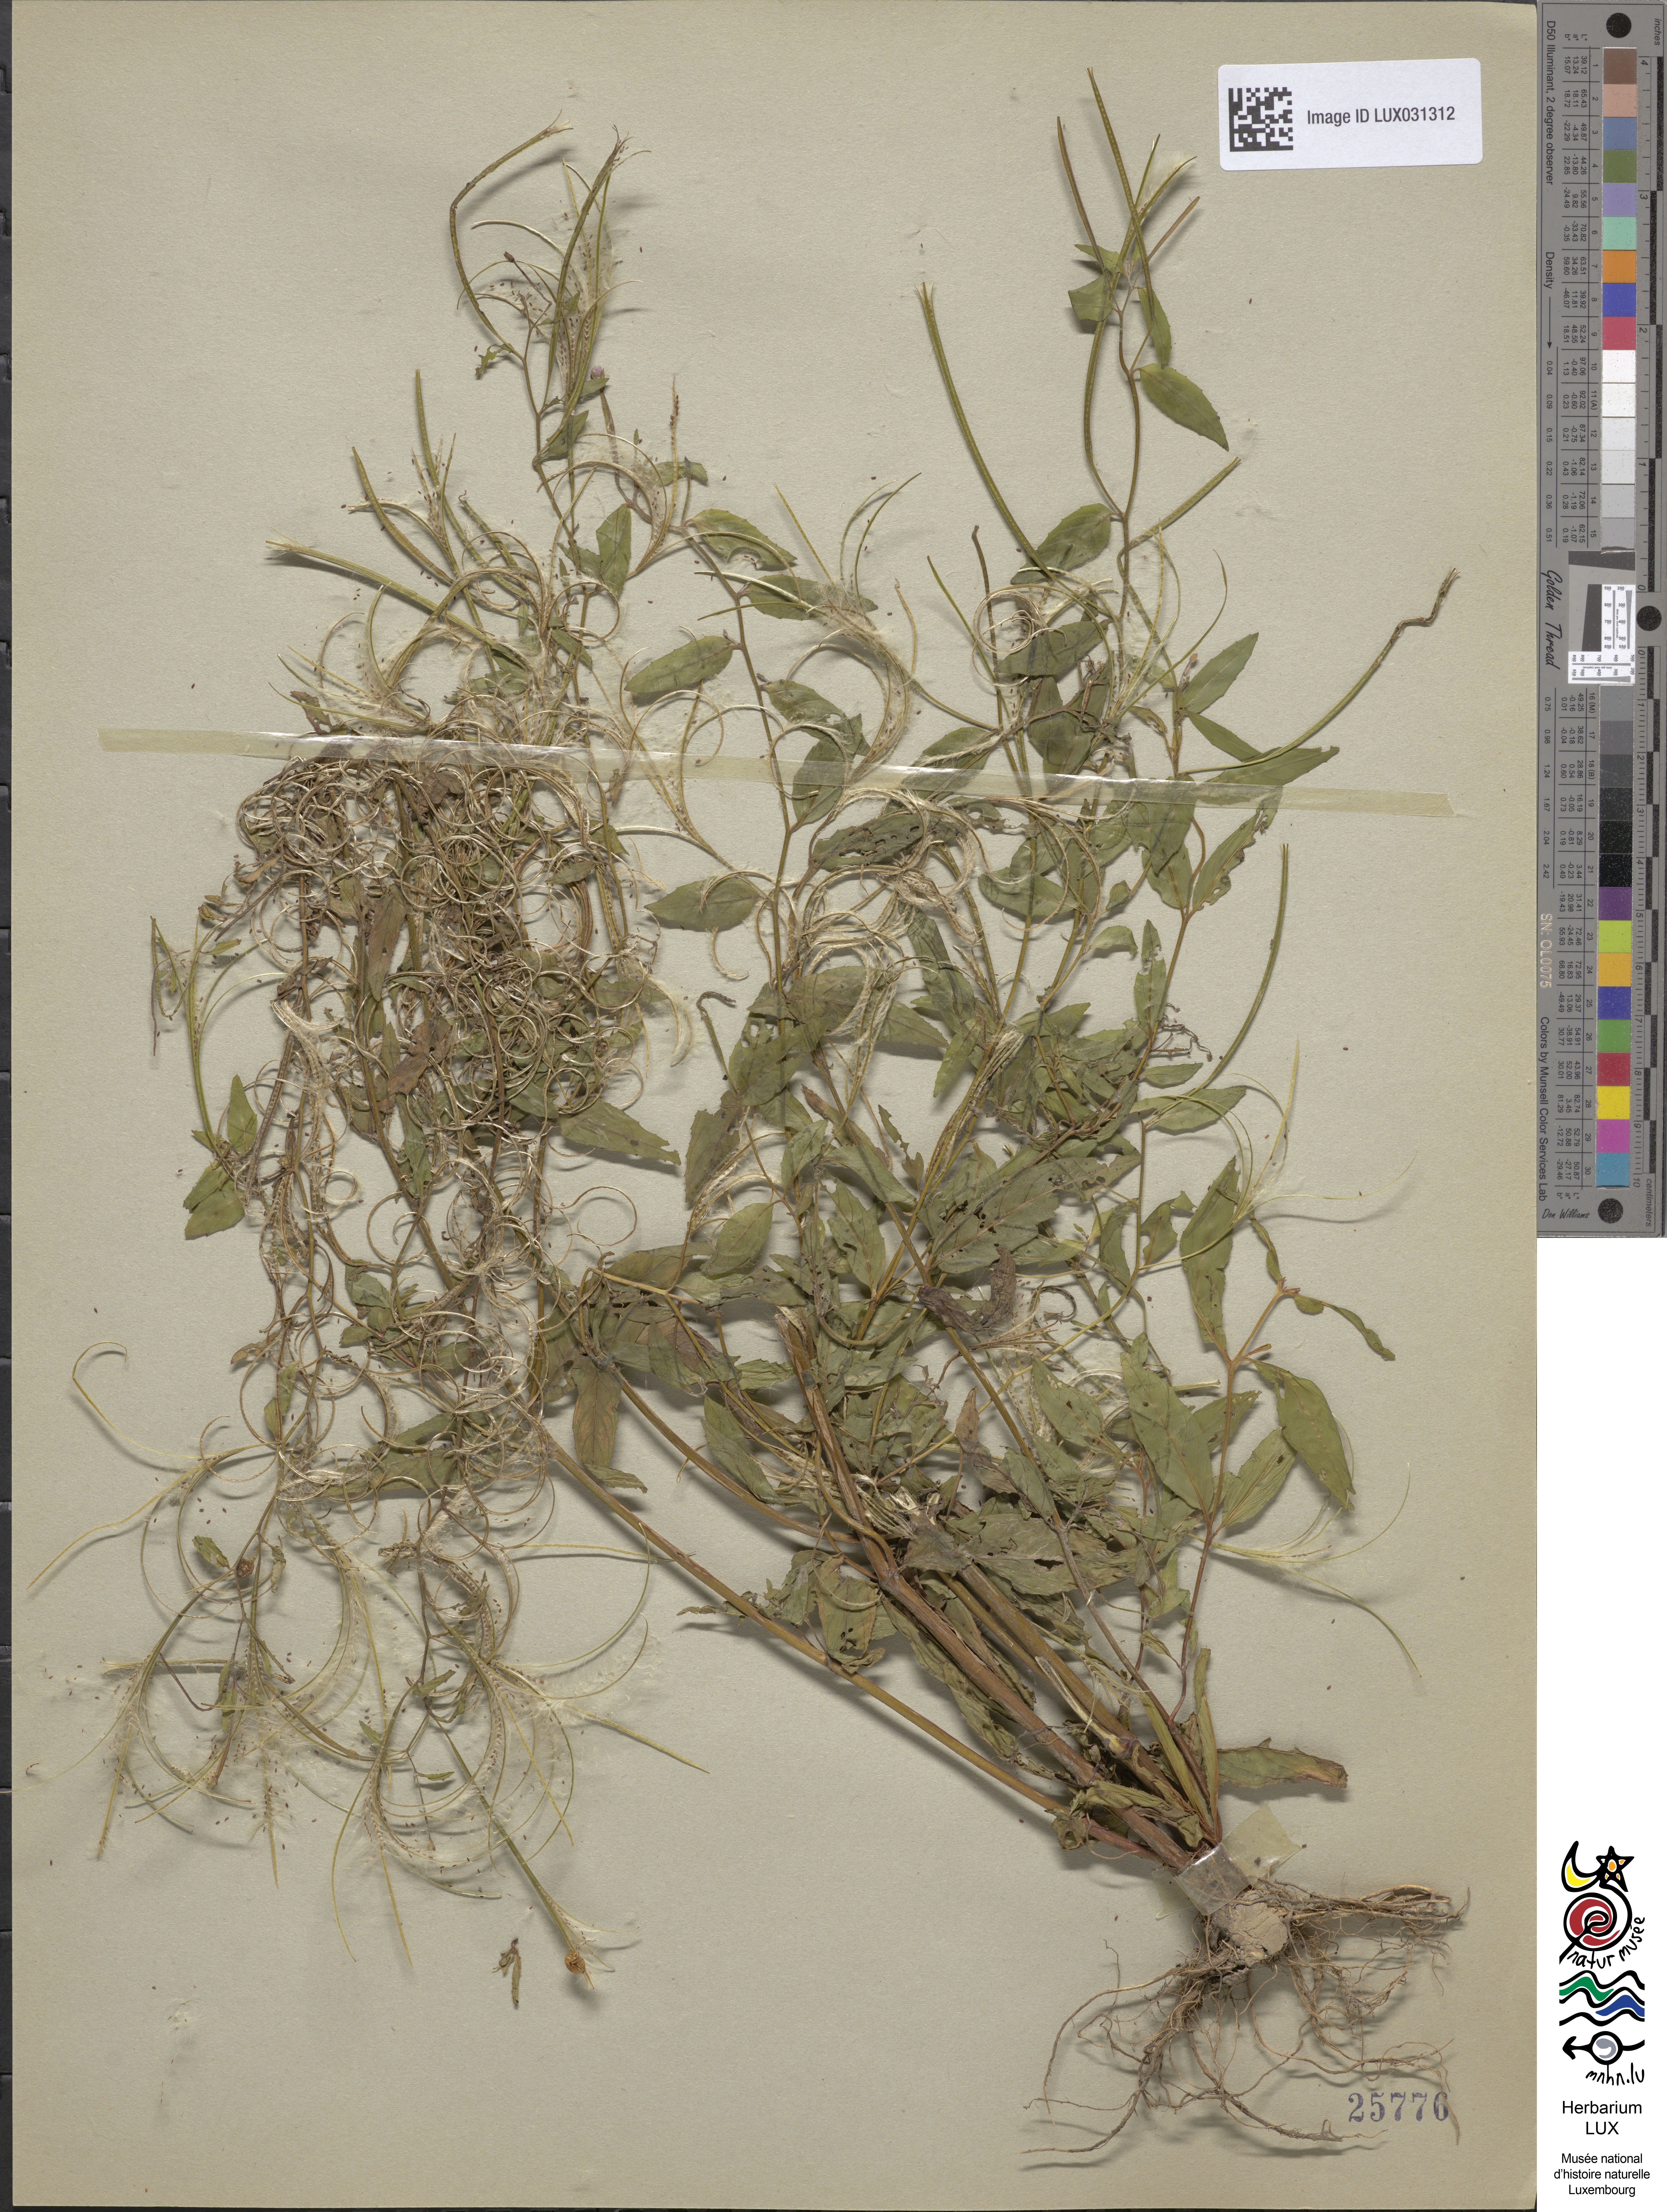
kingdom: Plantae
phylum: Tracheophyta
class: Magnoliopsida
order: Myrtales
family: Onagraceae
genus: Epilobium
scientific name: Epilobium ciliatum
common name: American willowherb
